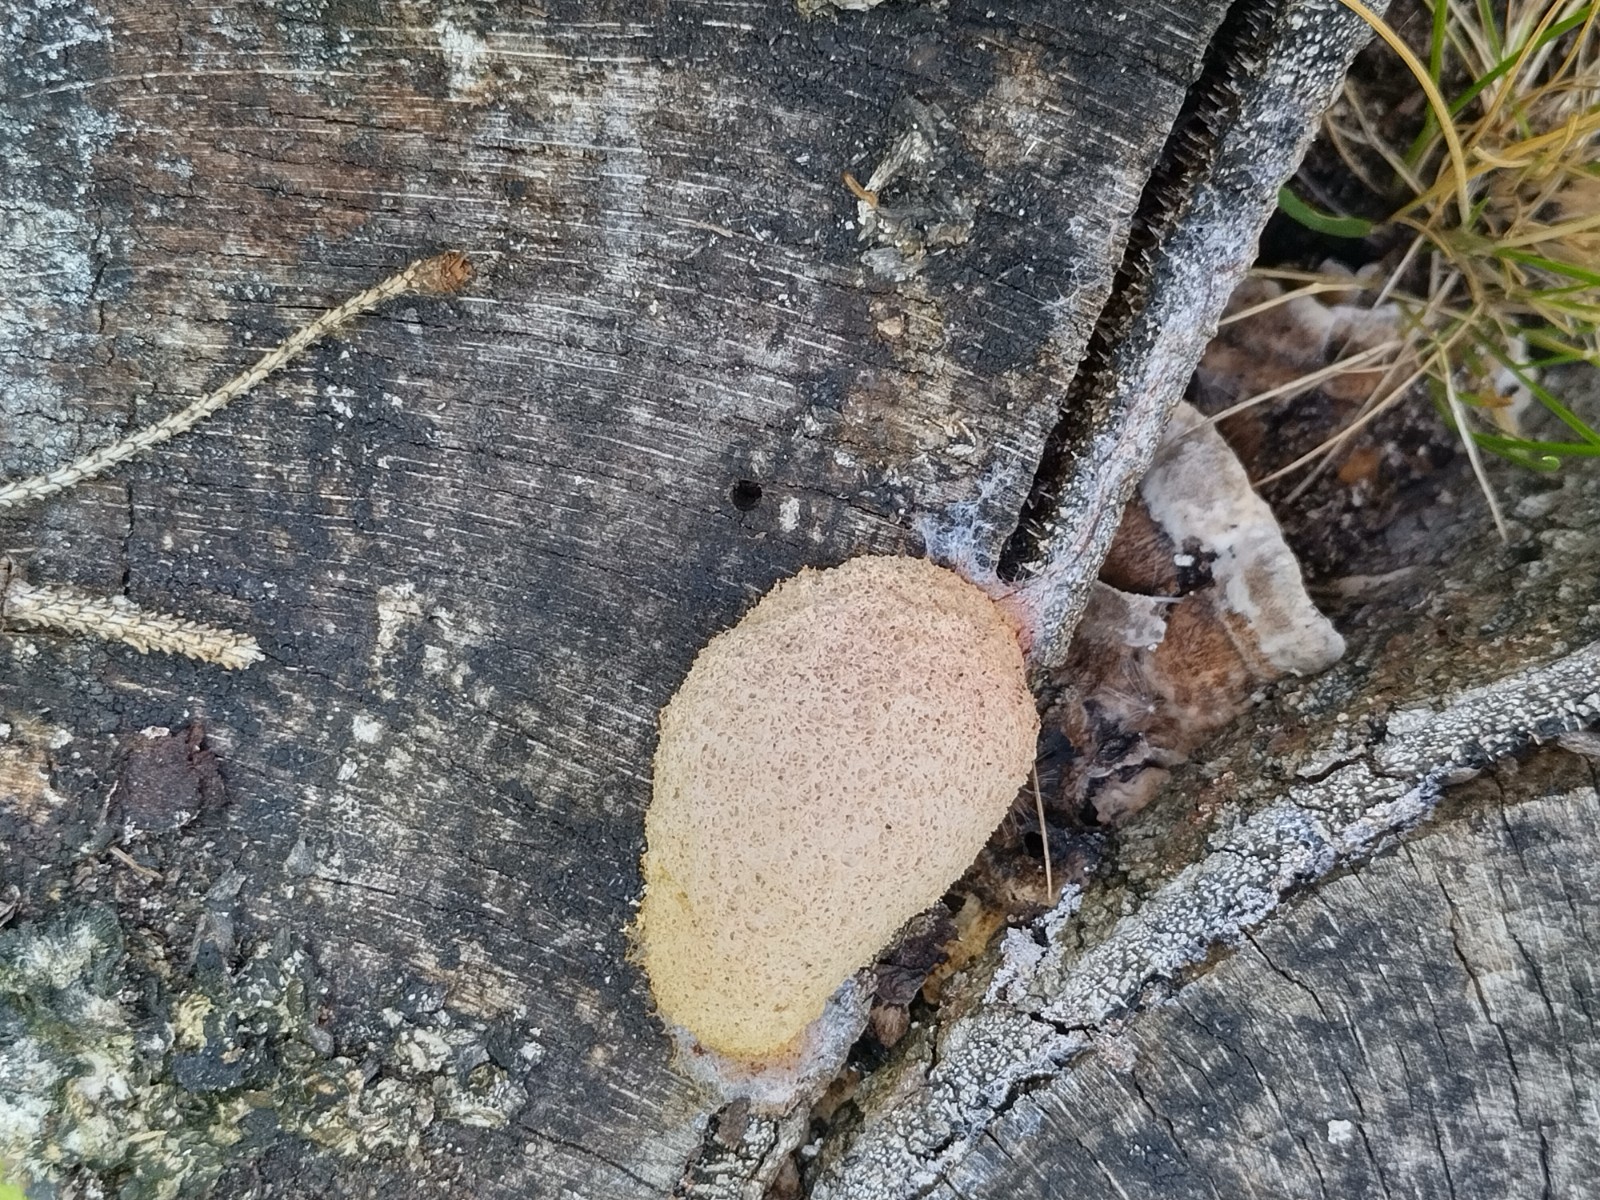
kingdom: Protozoa
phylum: Mycetozoa
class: Myxomycetes
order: Physarales
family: Physaraceae
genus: Fuligo
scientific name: Fuligo septica
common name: Dog vomit slime mold
